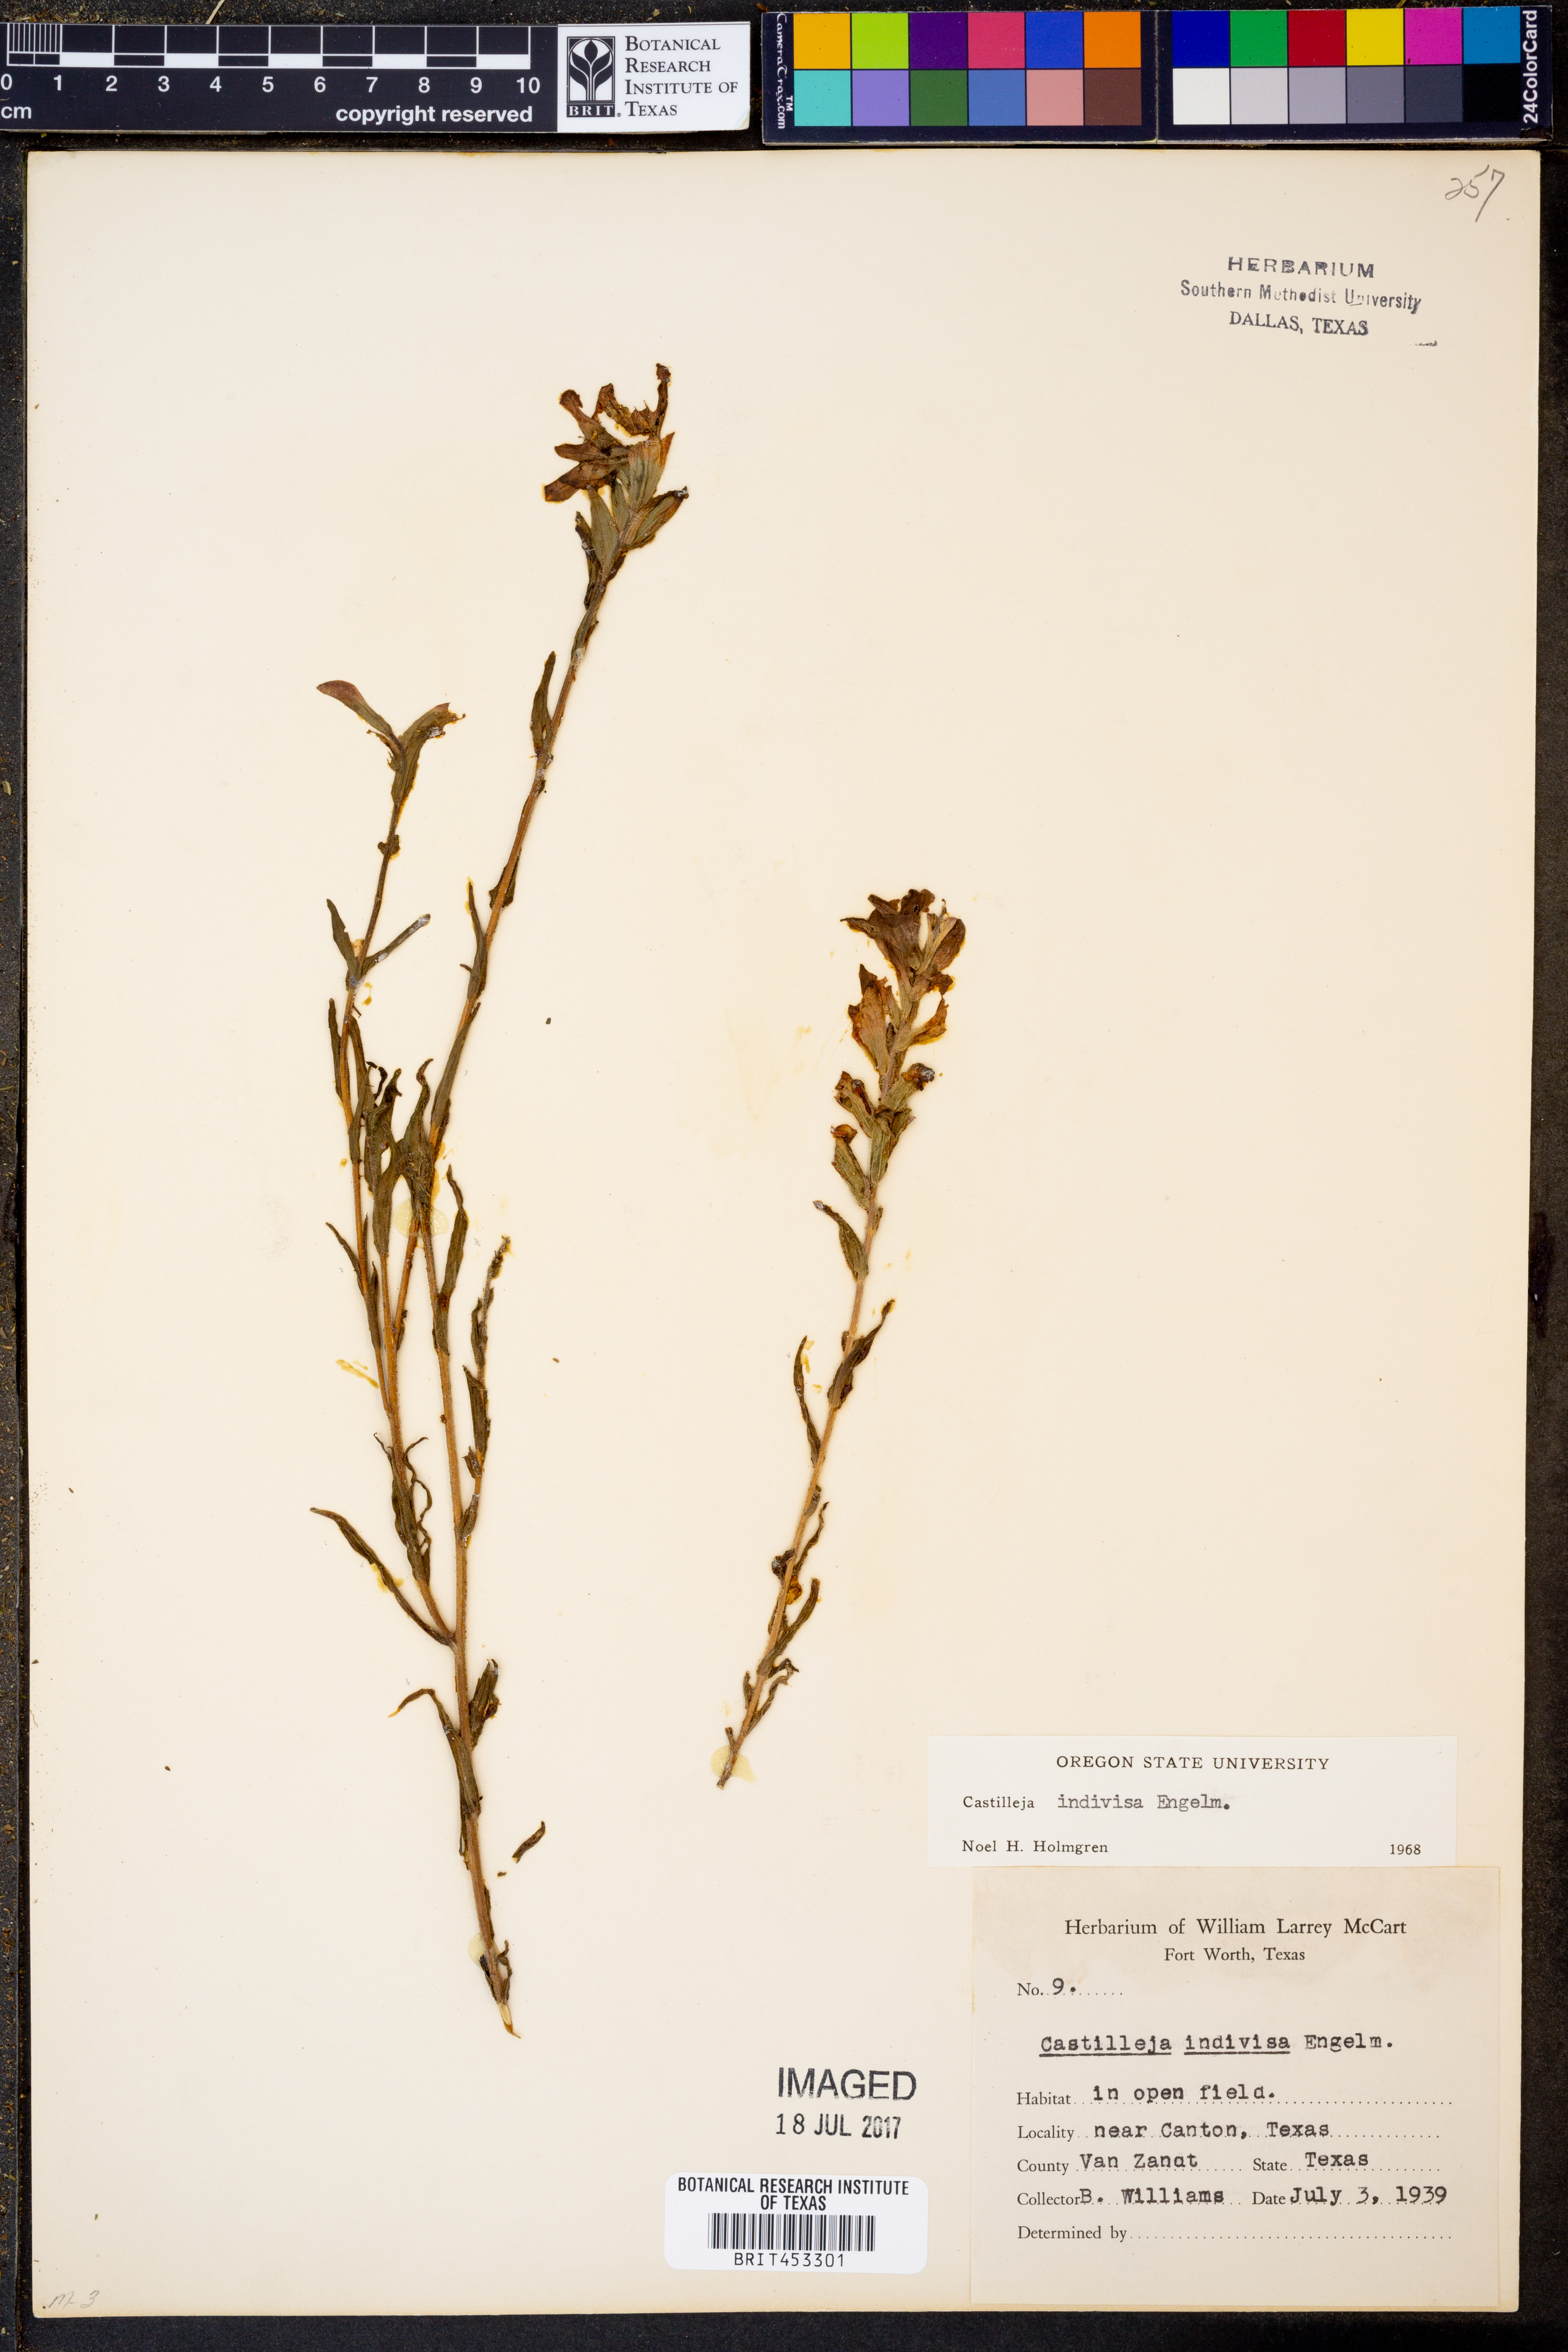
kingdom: Plantae
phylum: Tracheophyta
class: Magnoliopsida
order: Lamiales
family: Orobanchaceae
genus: Castilleja
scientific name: Castilleja indivisa
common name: Texas paintbrush
